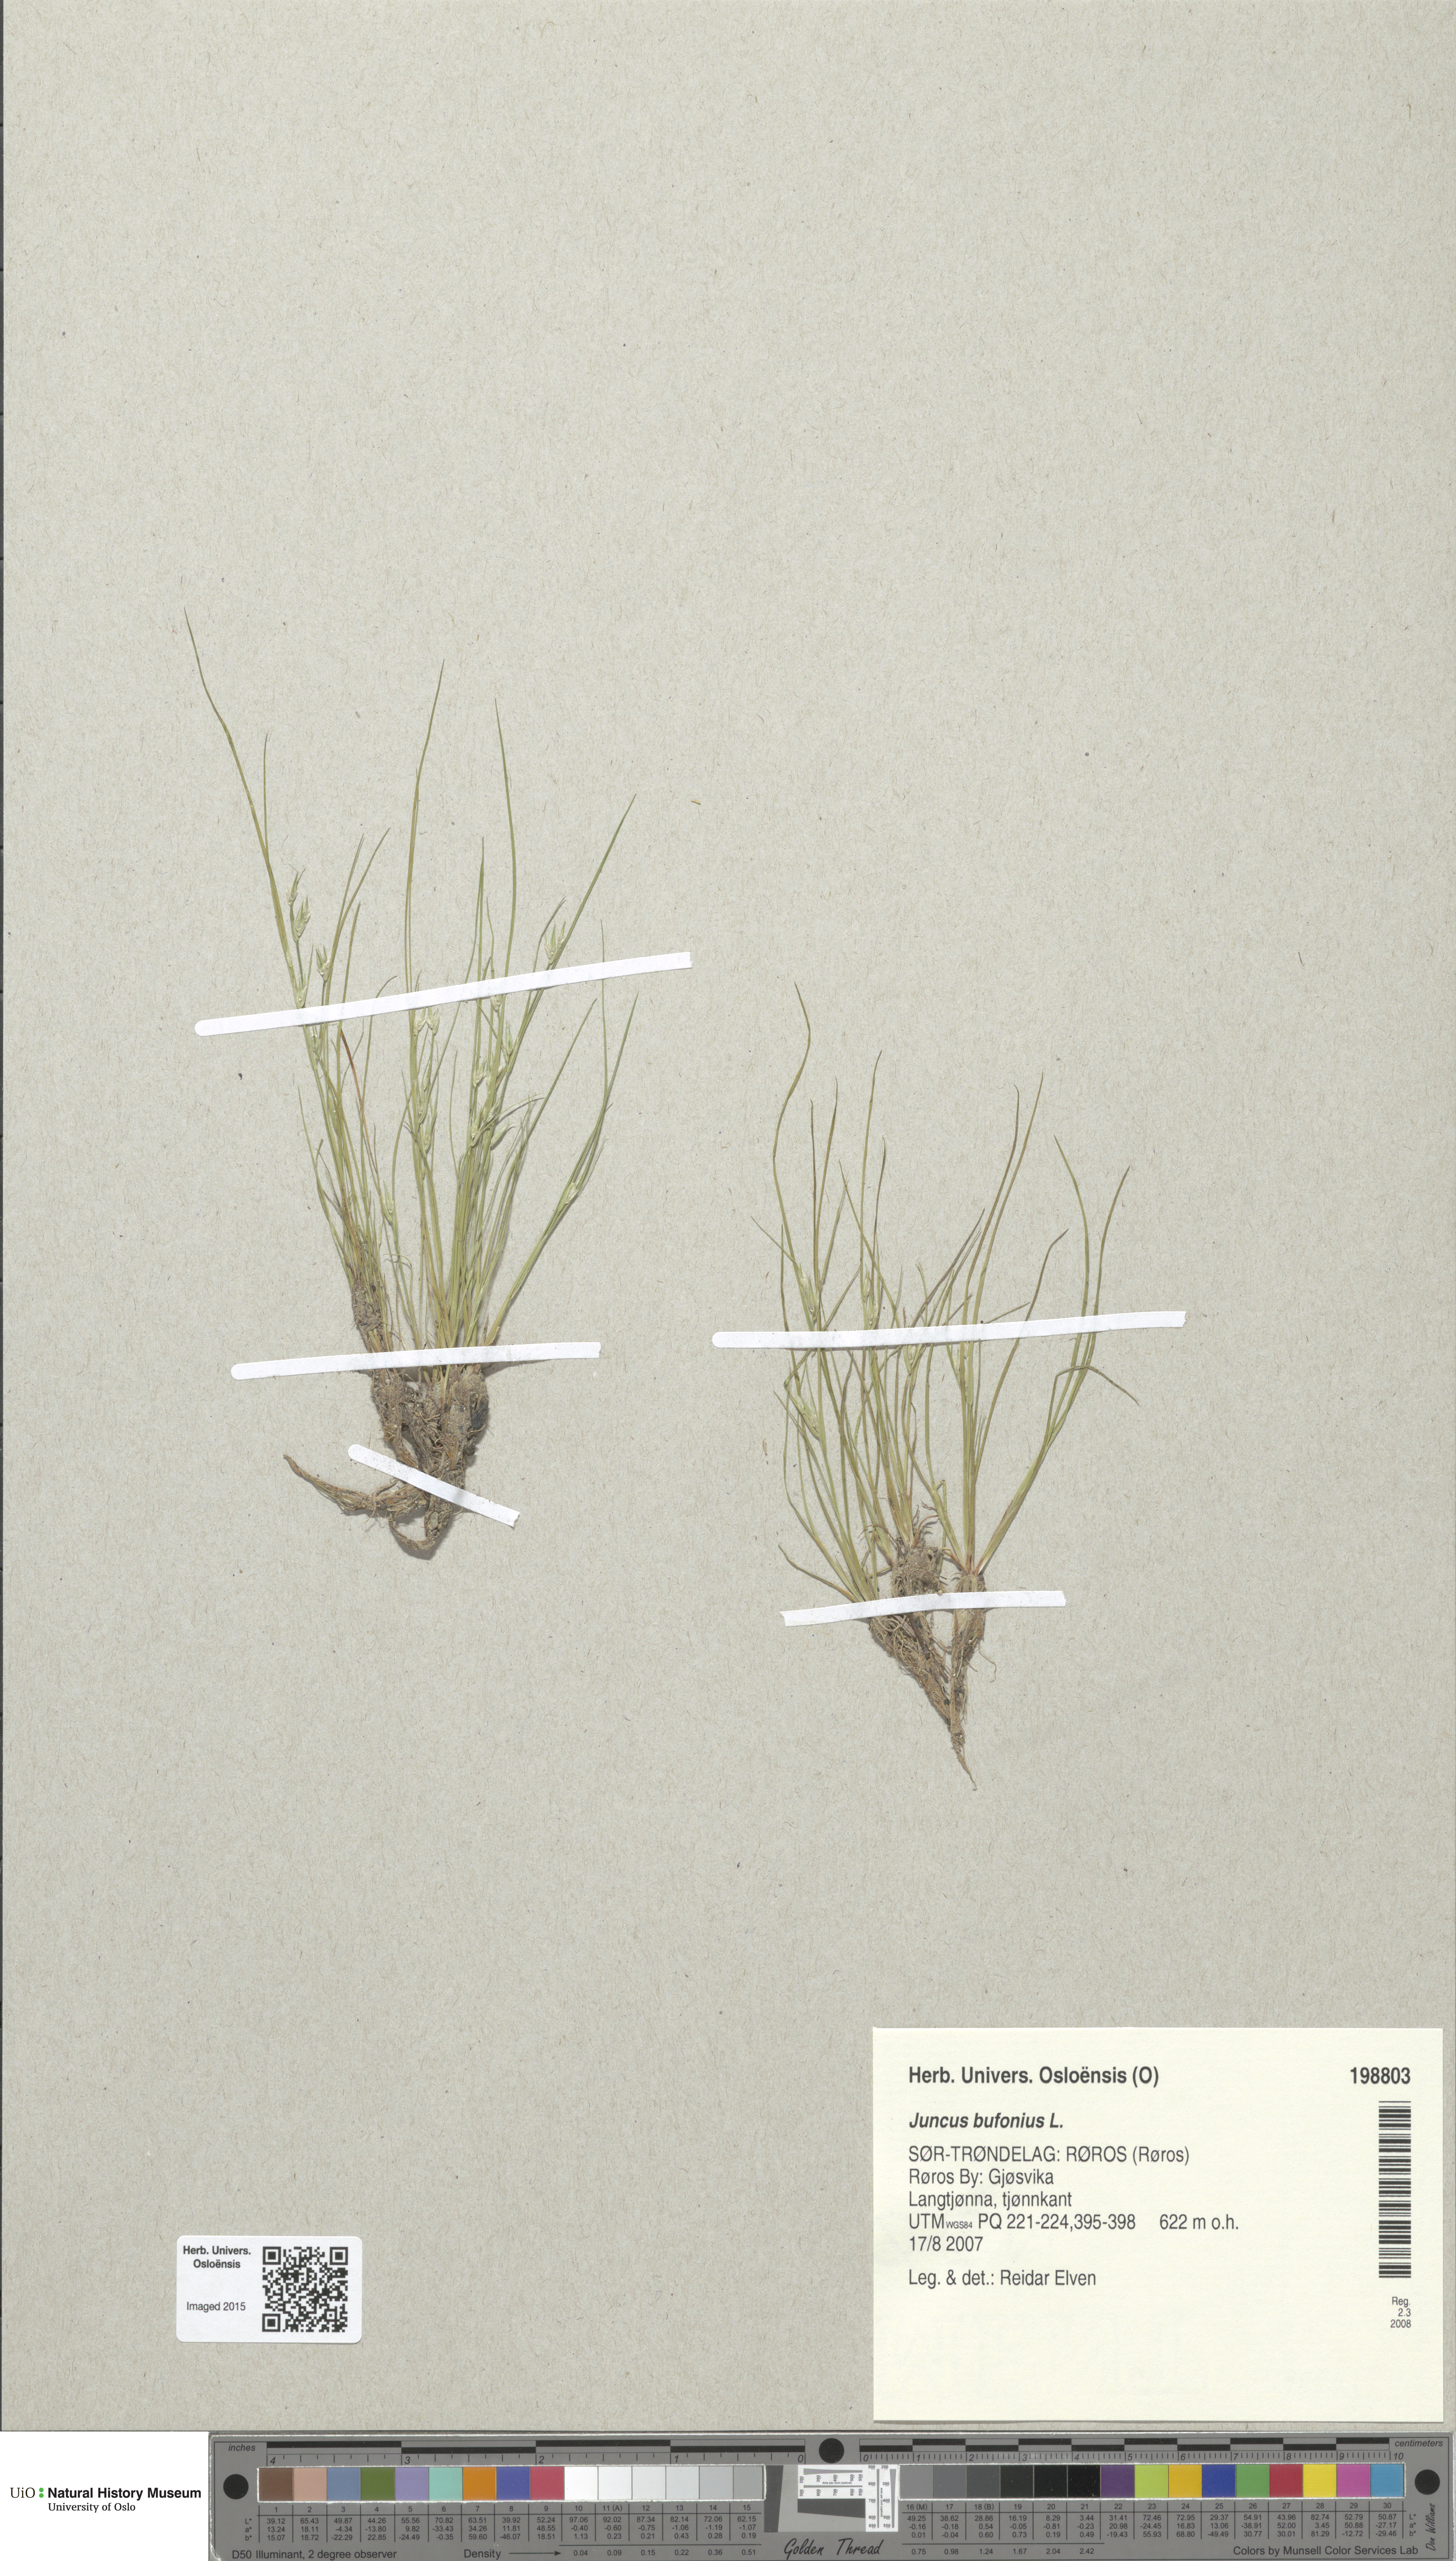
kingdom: Plantae
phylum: Tracheophyta
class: Liliopsida
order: Poales
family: Juncaceae
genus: Juncus
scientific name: Juncus bufonius
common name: Toad rush
